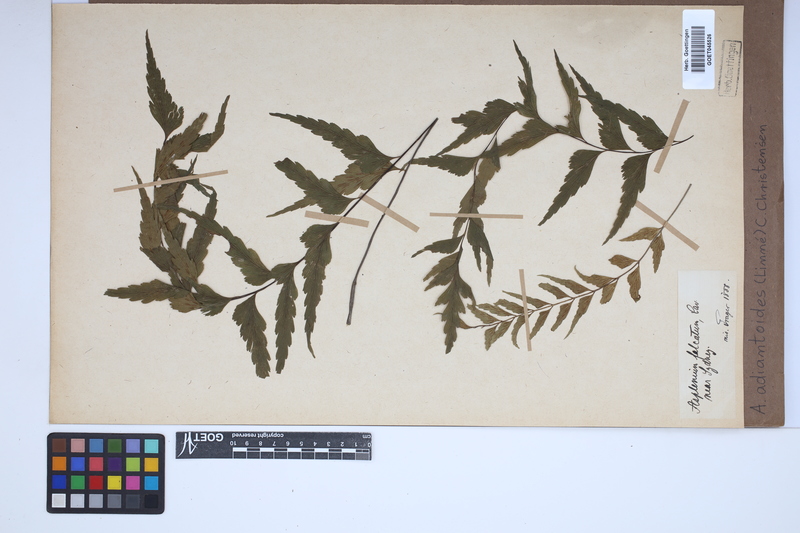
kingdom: Plantae
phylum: Tracheophyta
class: Polypodiopsida
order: Polypodiales
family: Aspleniaceae
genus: Asplenium
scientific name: Asplenium aethiopicum
